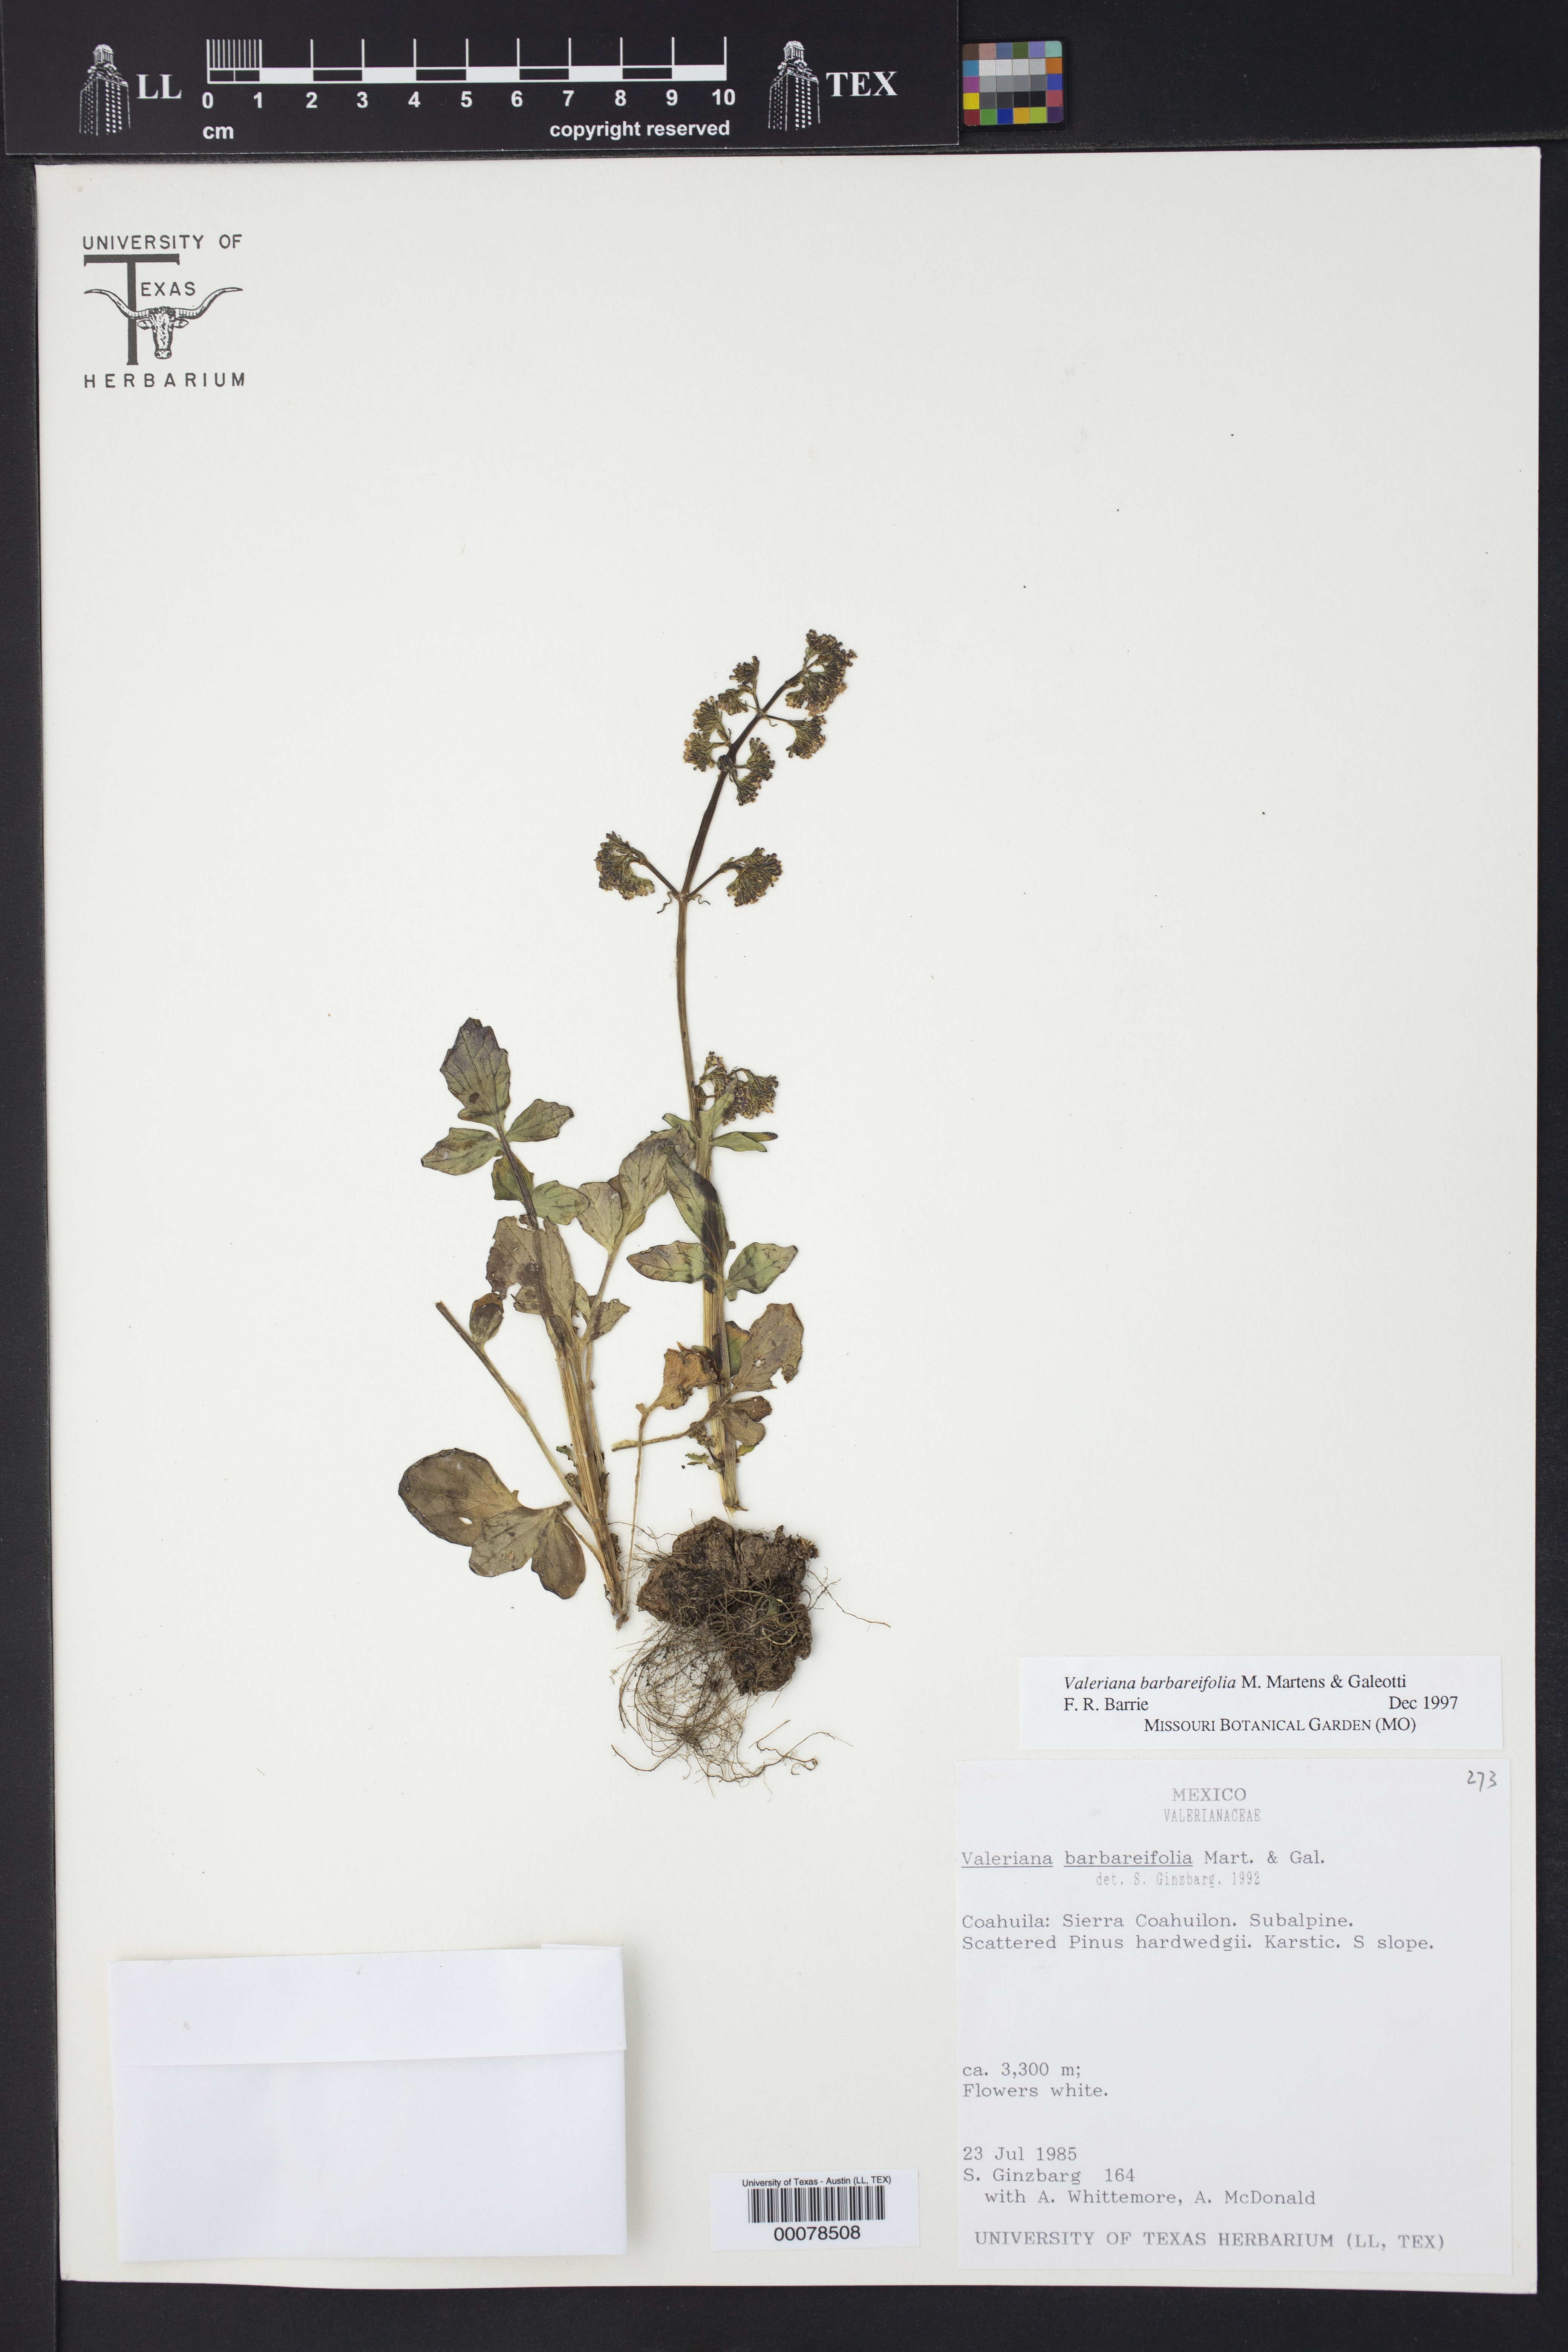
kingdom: Plantae
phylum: Tracheophyta
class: Magnoliopsida
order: Dipsacales
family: Caprifoliaceae
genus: Valeriana
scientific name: Valeriana barbareifolia
